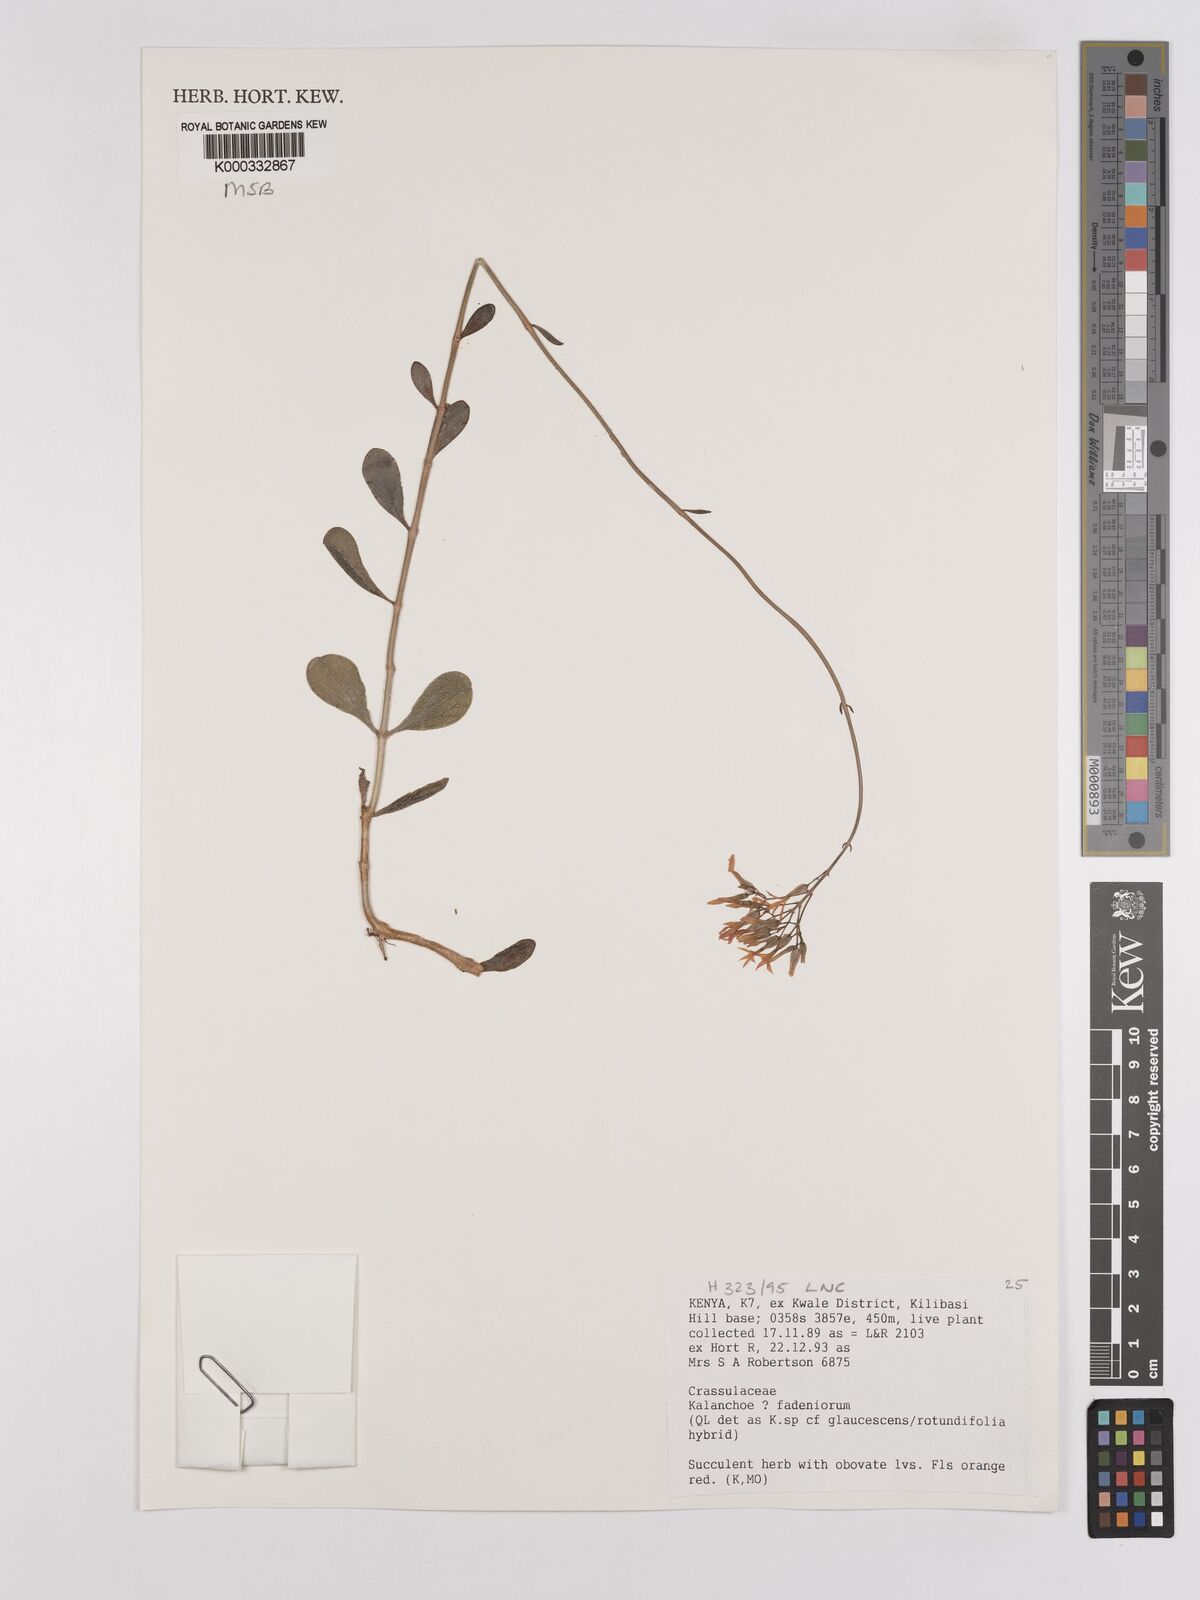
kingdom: Plantae
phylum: Tracheophyta
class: Magnoliopsida
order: Saxifragales
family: Crassulaceae
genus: Kalanchoe
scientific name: Kalanchoe
